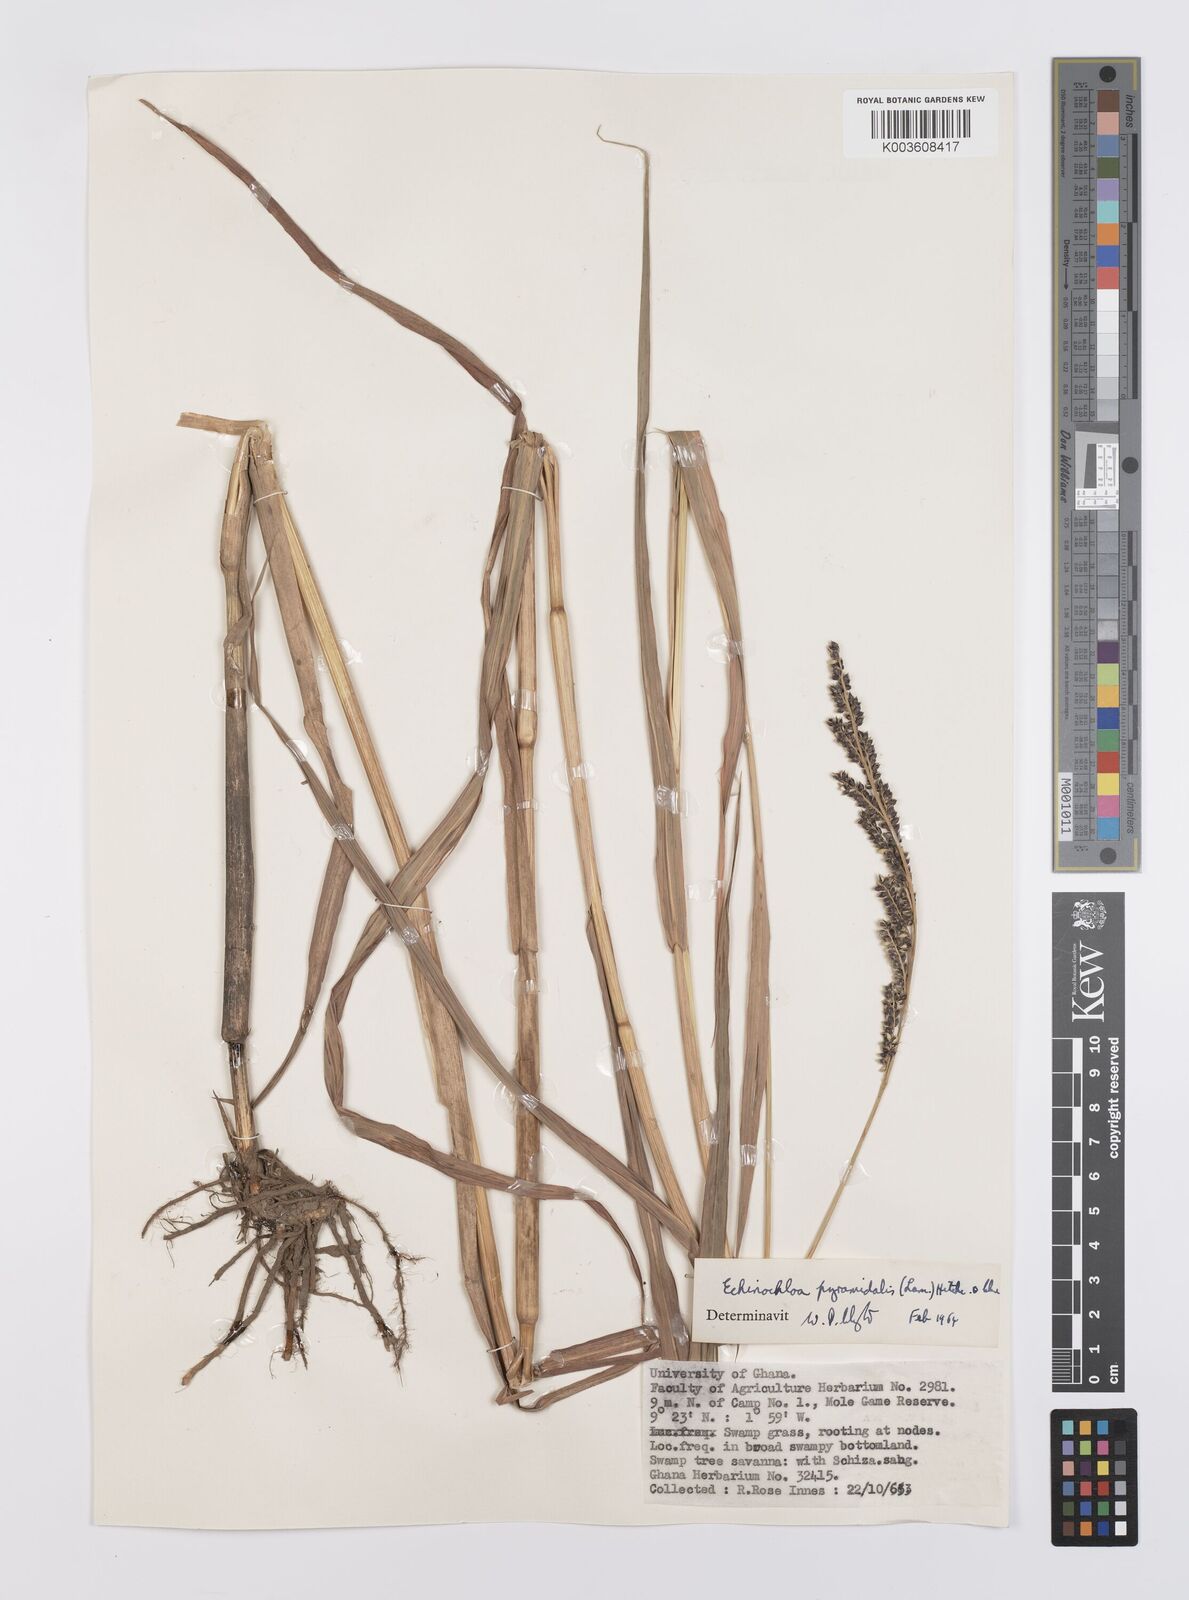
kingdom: Plantae
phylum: Tracheophyta
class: Liliopsida
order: Poales
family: Poaceae
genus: Echinochloa
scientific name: Echinochloa pyramidalis
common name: Antelope grass
